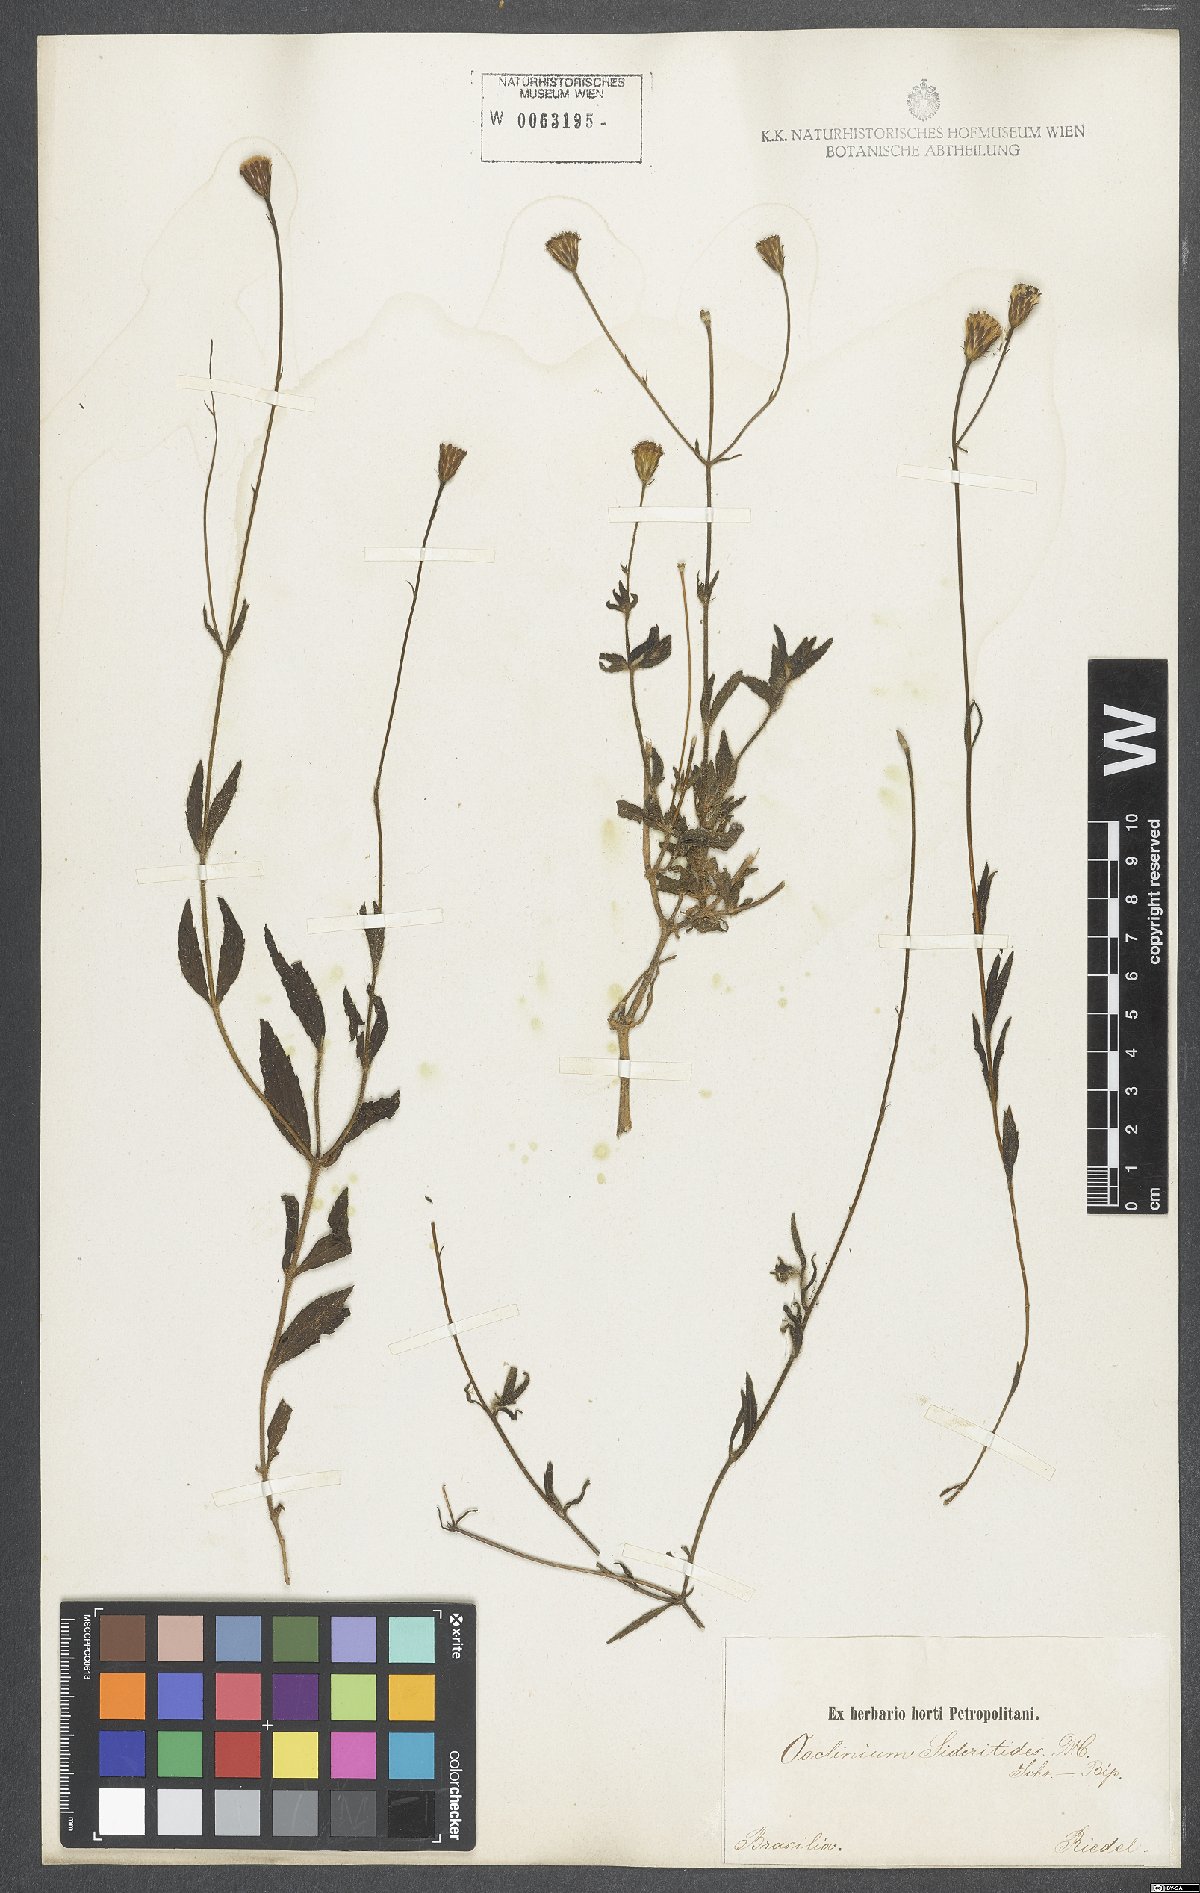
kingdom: Plantae
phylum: Tracheophyta
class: Magnoliopsida
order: Asterales
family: Asteraceae
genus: Ageratina
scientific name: Ageratina altissima
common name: White snakeroot
